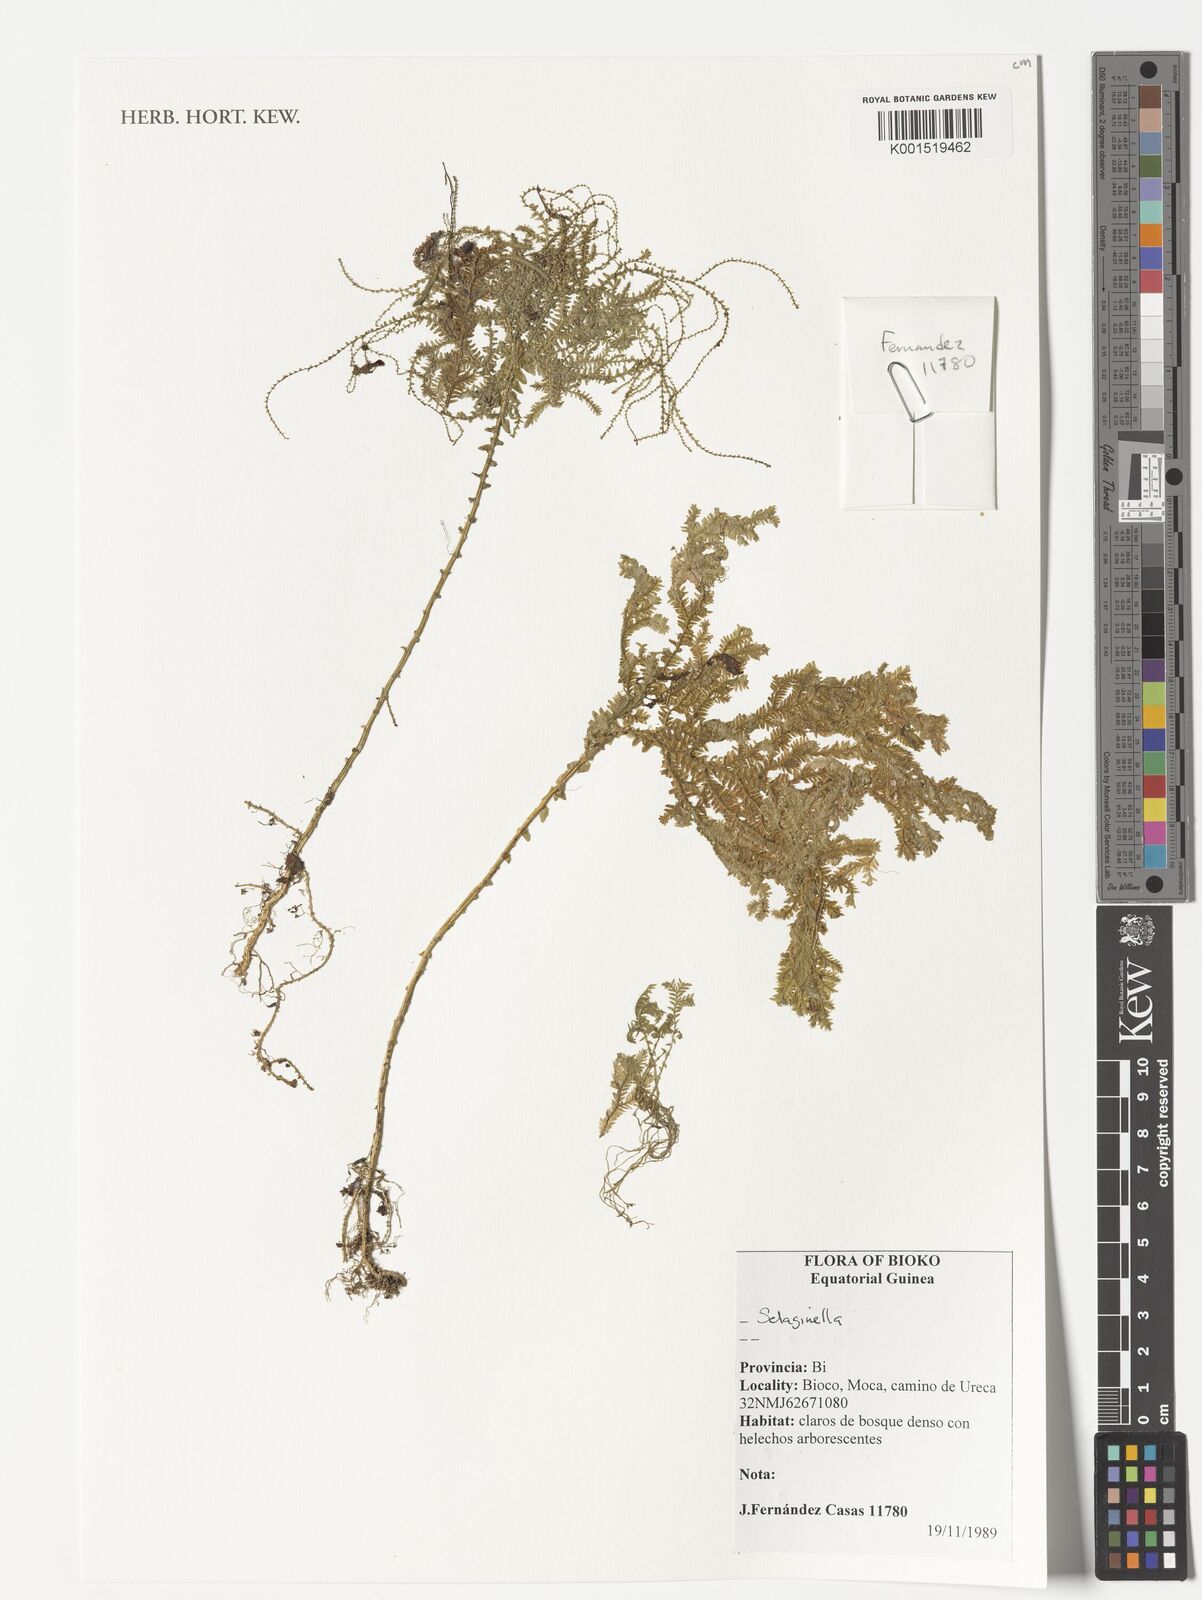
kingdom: Plantae
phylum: Tracheophyta
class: Lycopodiopsida
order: Selaginellales
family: Selaginellaceae
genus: Selaginella
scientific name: Selaginella
